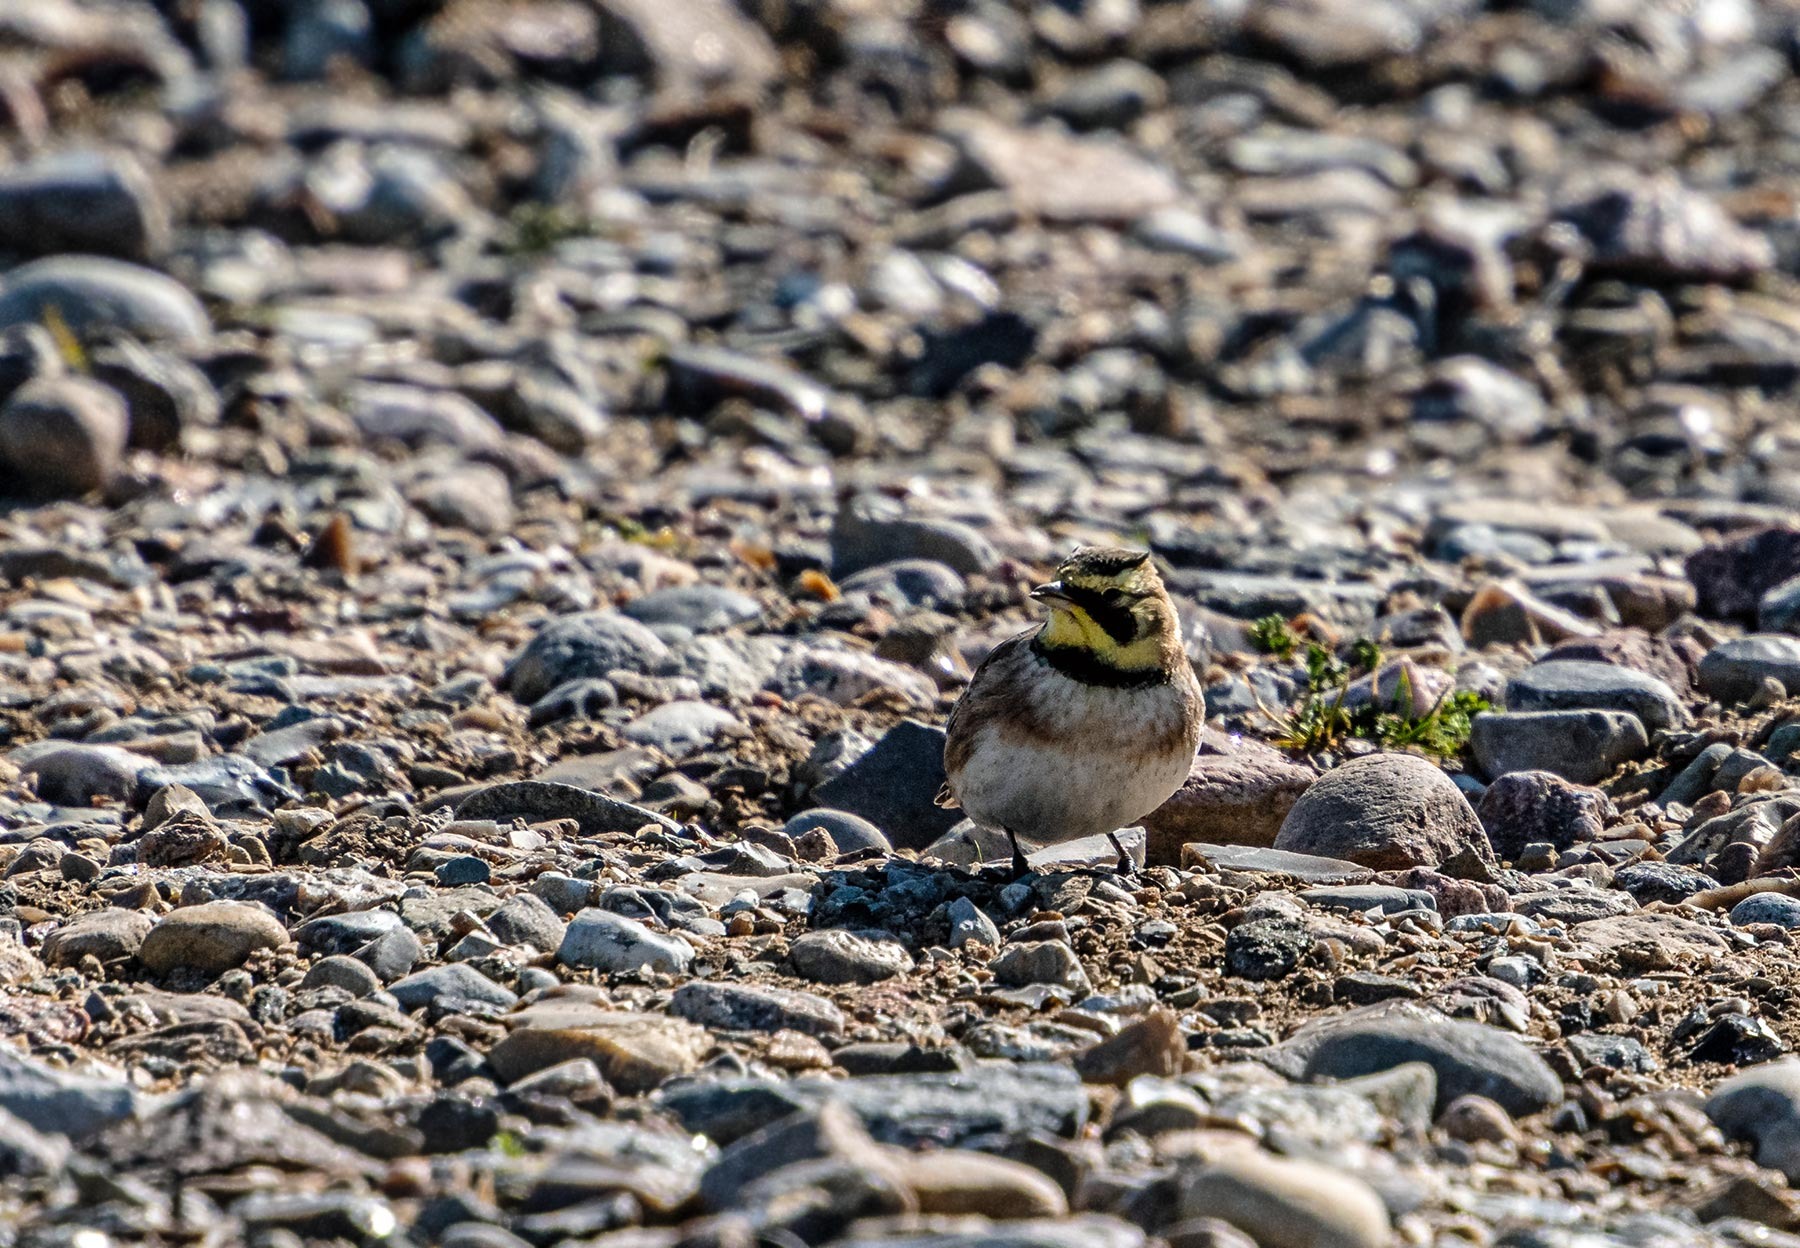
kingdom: Animalia
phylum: Chordata
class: Aves
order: Passeriformes
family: Alaudidae
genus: Eremophila
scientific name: Eremophila alpestris
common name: Bjerglærke
